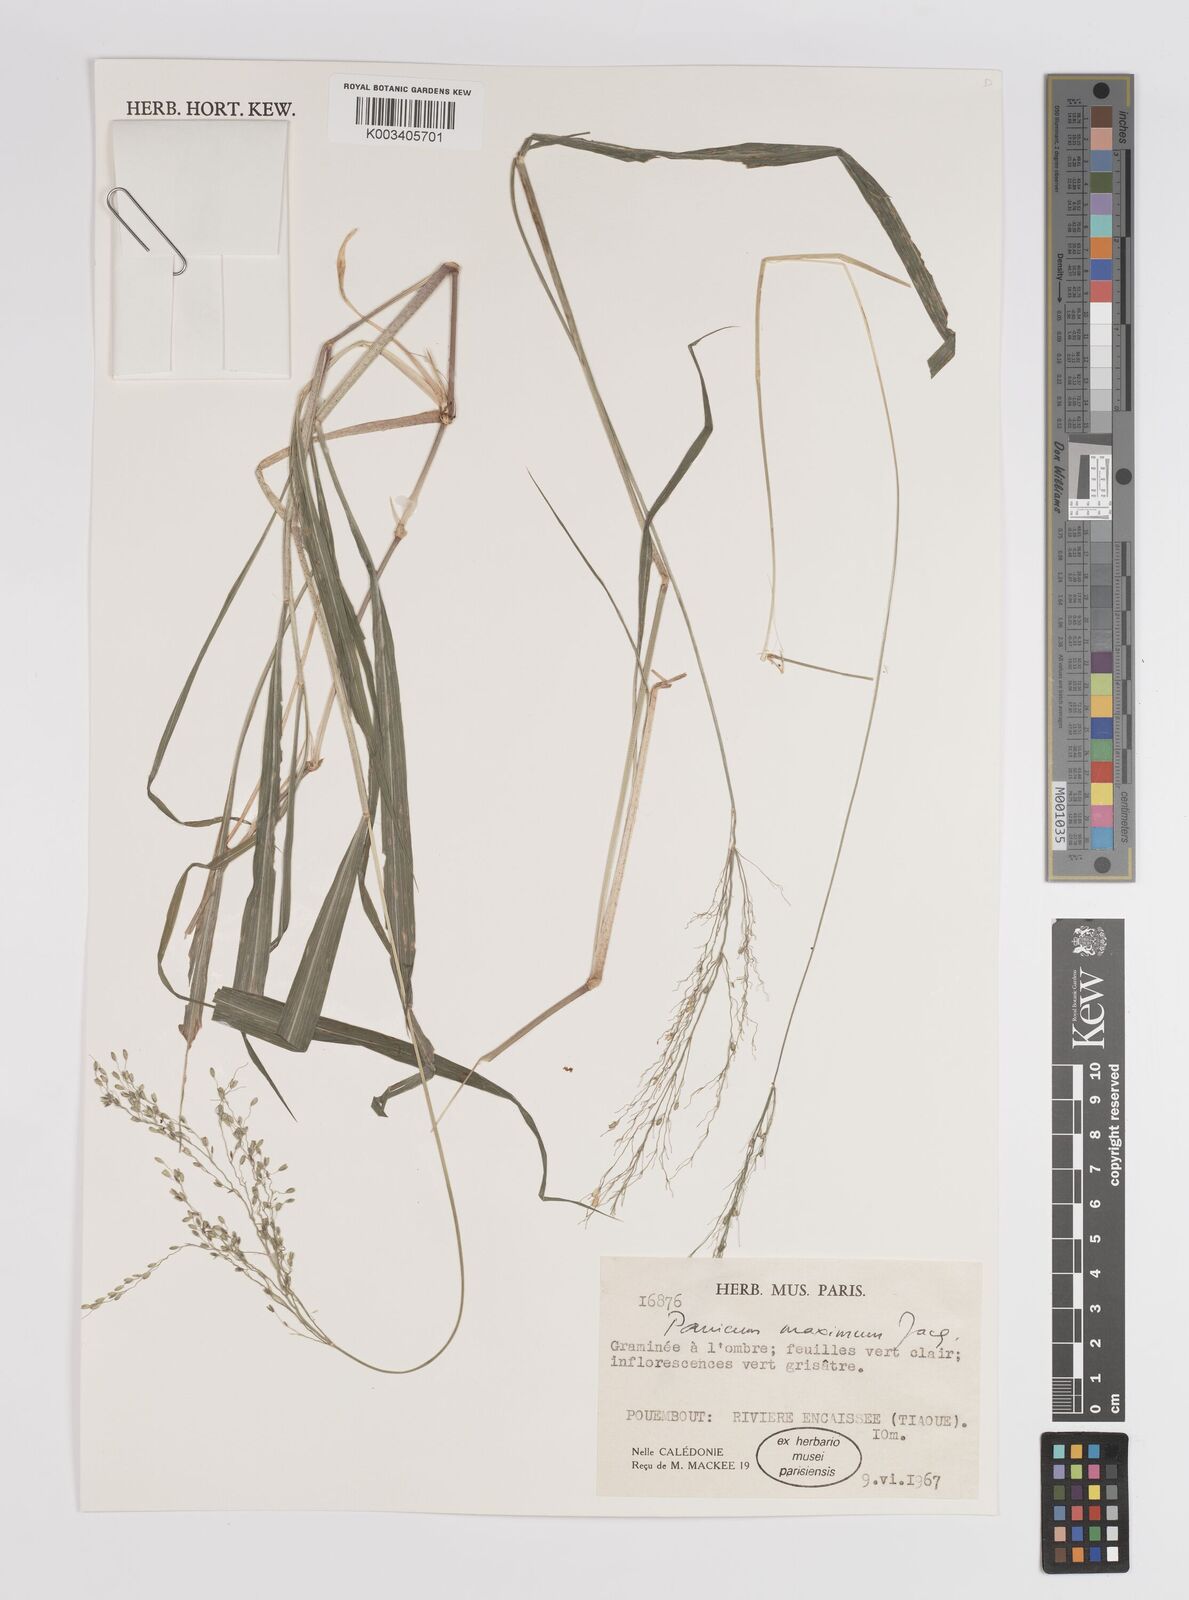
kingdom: Plantae
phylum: Tracheophyta
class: Liliopsida
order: Poales
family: Poaceae
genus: Megathyrsus
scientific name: Megathyrsus maximus
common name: Guineagrass
